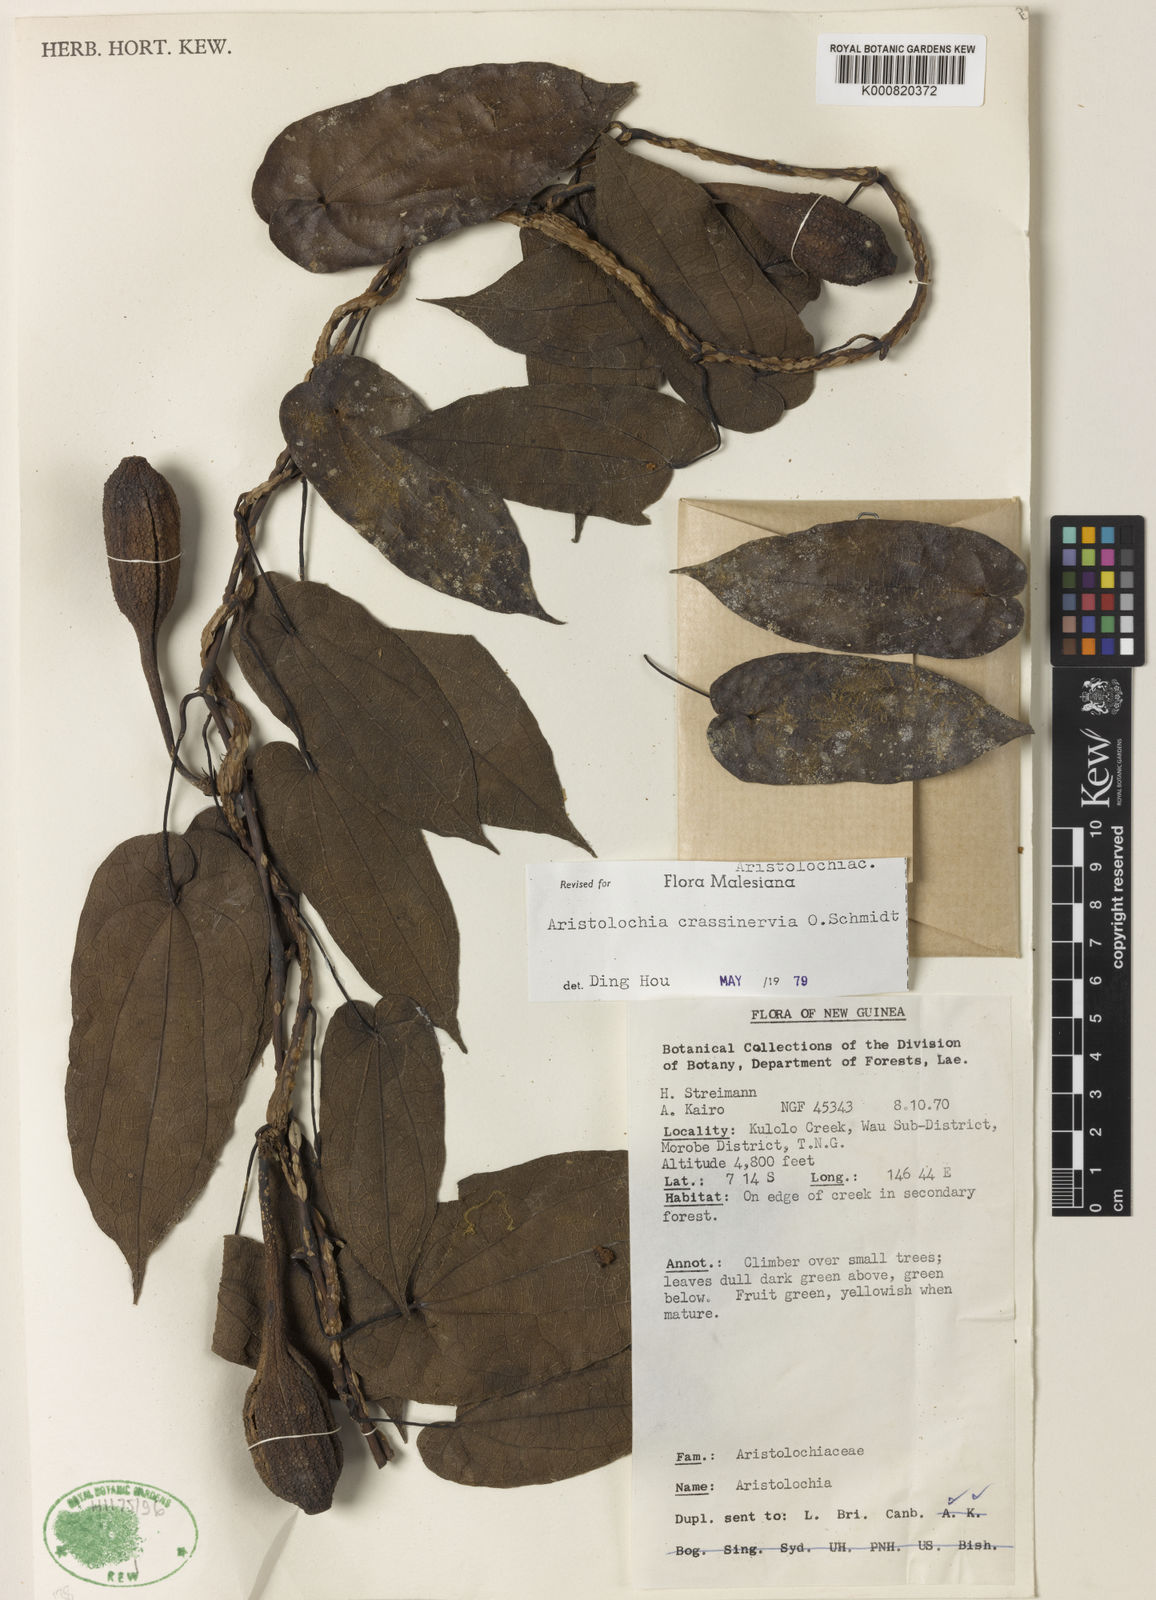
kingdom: Plantae
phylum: Tracheophyta
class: Magnoliopsida
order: Piperales
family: Aristolochiaceae
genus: Aristolochia
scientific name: Aristolochia crassinervia
